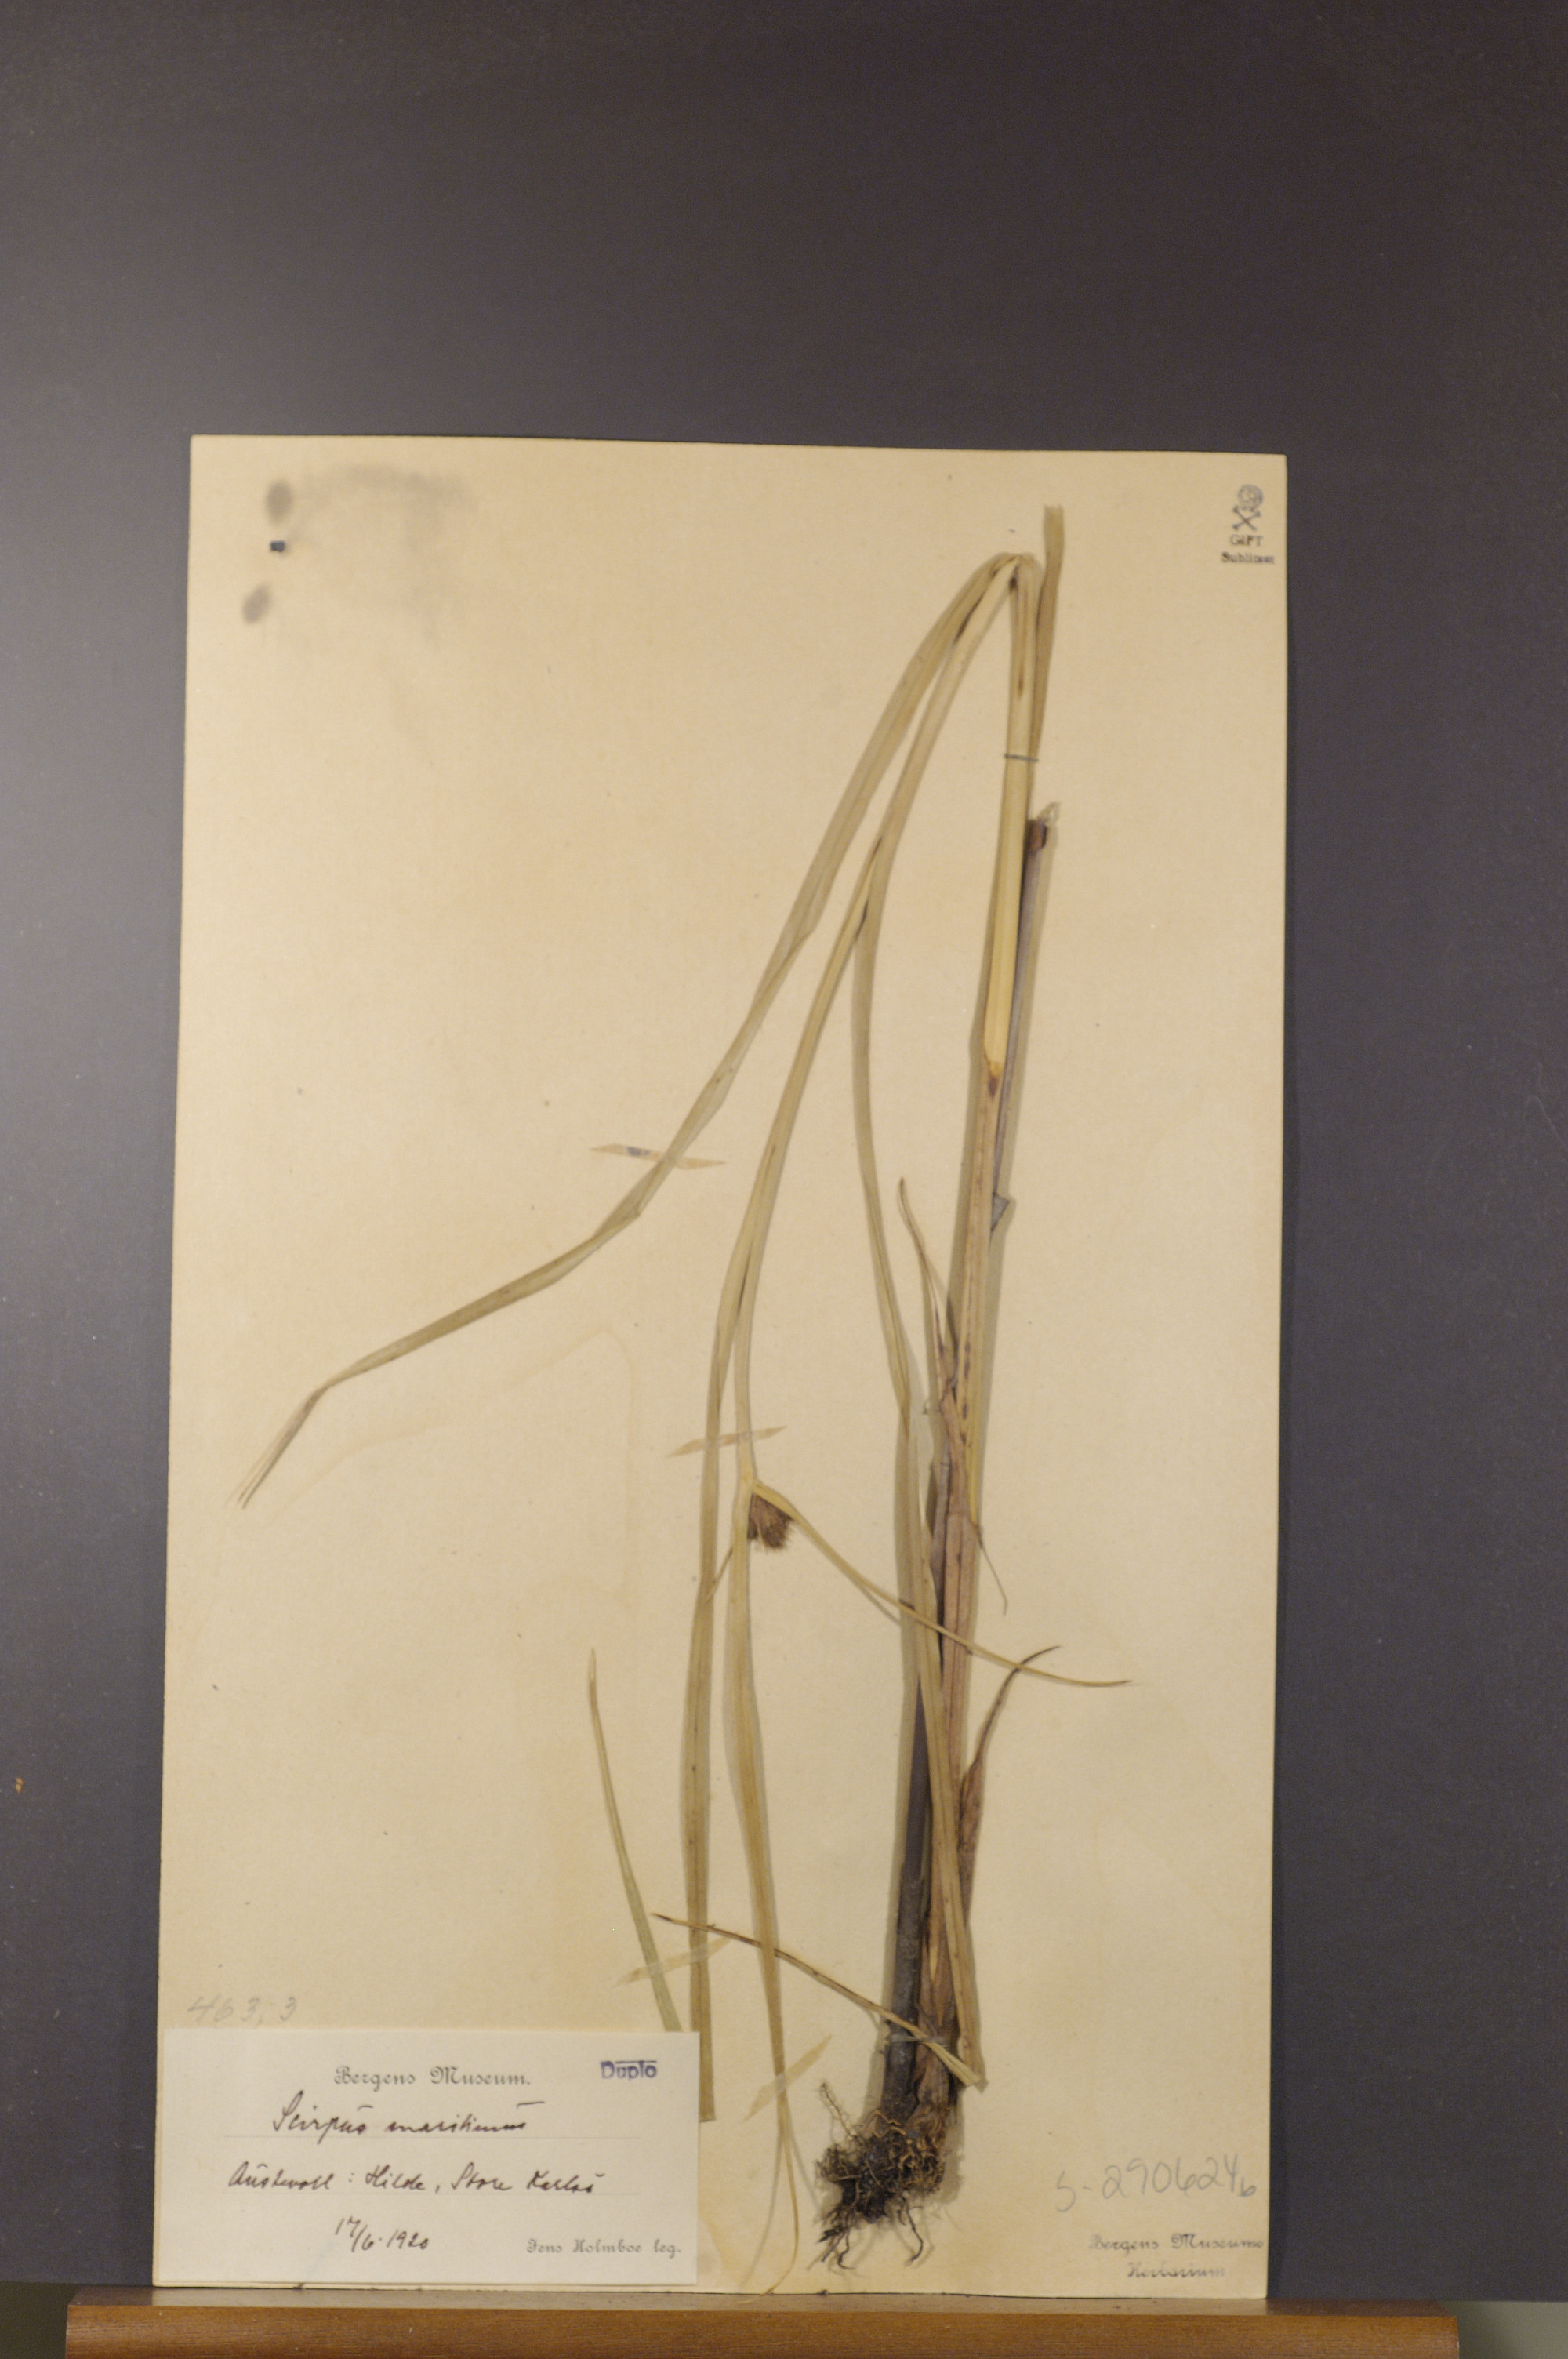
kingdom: Plantae
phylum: Tracheophyta
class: Liliopsida
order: Poales
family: Cyperaceae
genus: Bolboschoenus
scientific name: Bolboschoenus maritimus
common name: Sea club-rush
